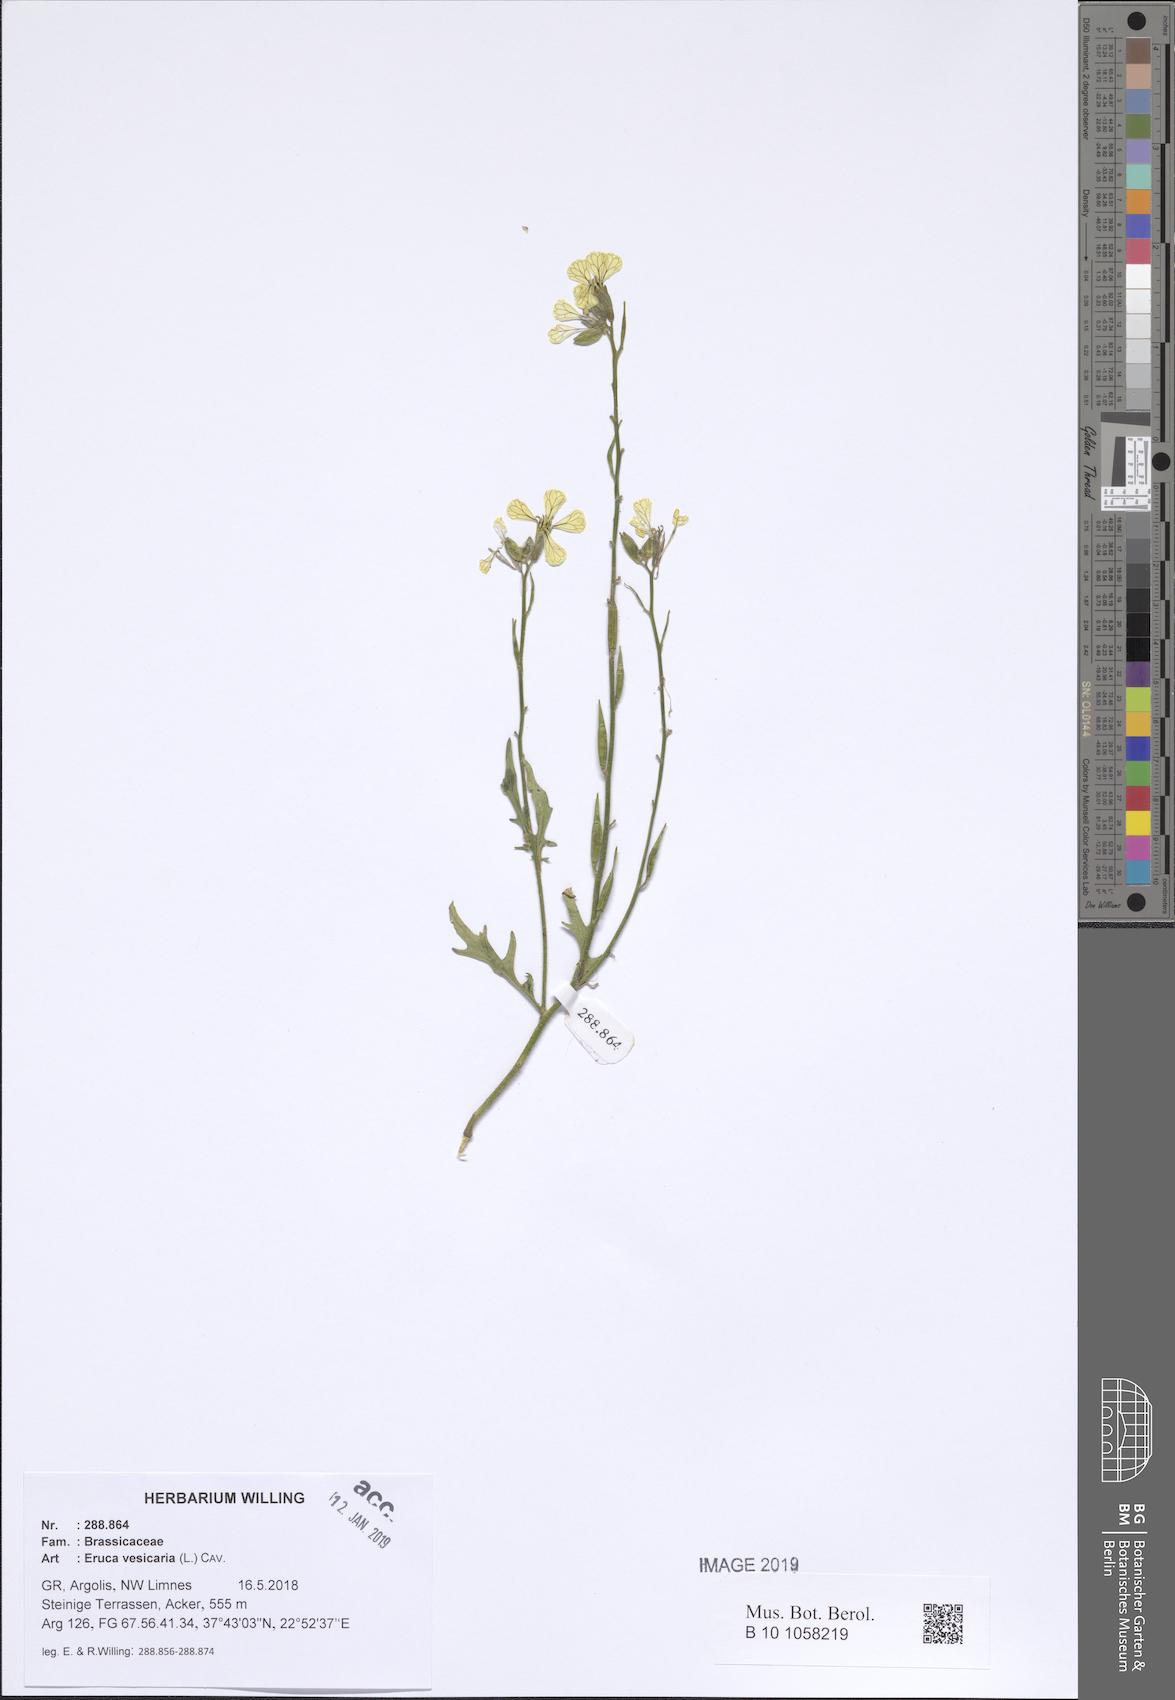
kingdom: Plantae
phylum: Tracheophyta
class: Magnoliopsida
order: Brassicales
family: Brassicaceae
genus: Eruca
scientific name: Eruca vesicaria
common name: Garden rocket
